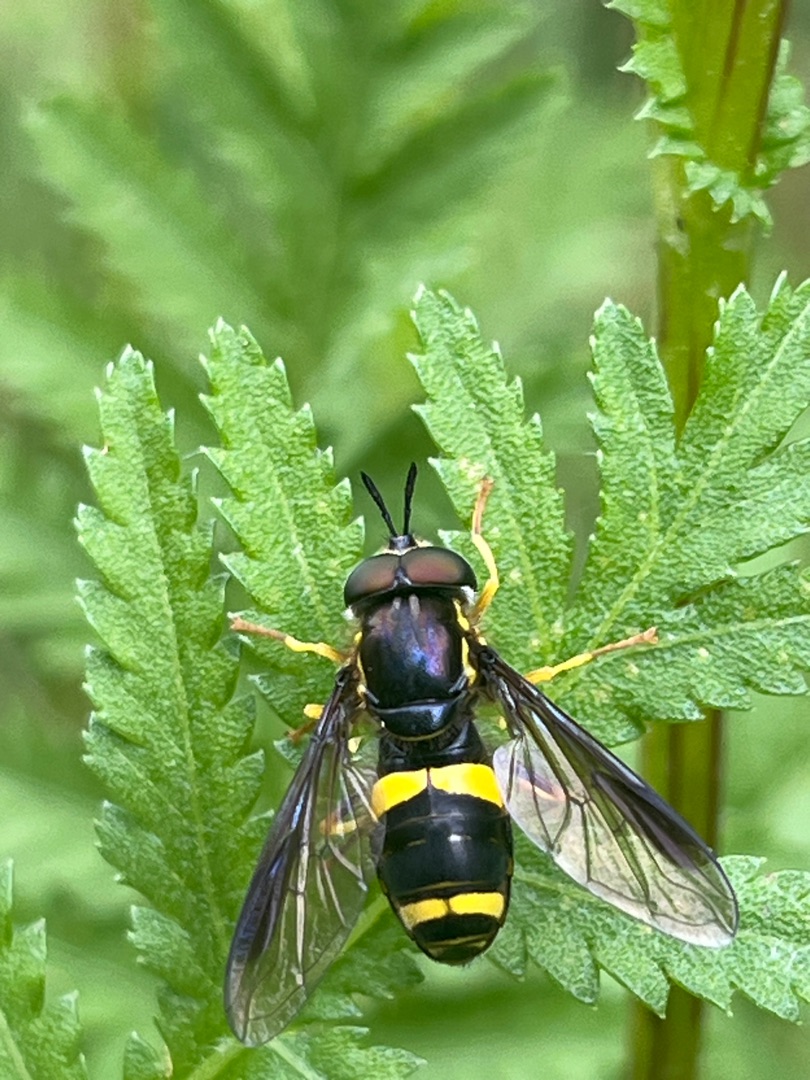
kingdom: Animalia
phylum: Arthropoda
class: Insecta
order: Diptera
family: Syrphidae
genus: Chrysotoxum
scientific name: Chrysotoxum bicincta
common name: Tobåndet hvepsesvirreflue
